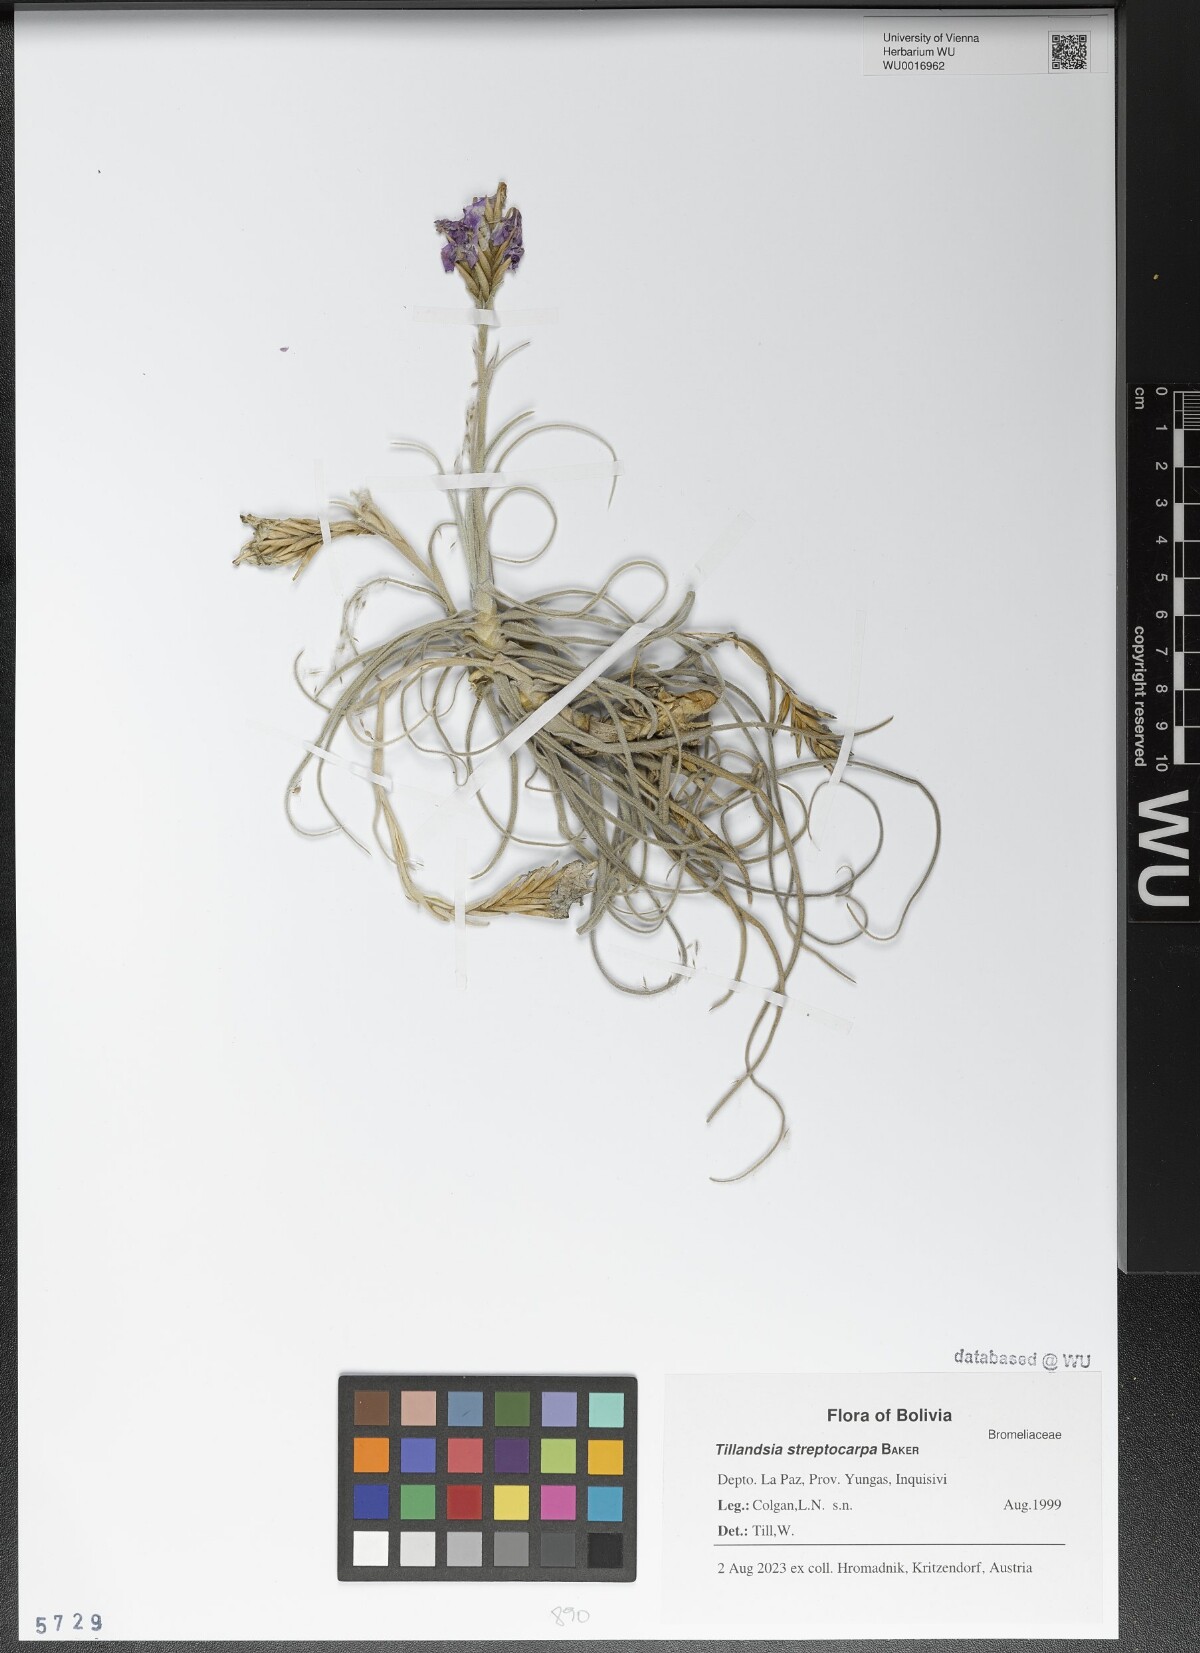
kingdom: Plantae
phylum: Tracheophyta
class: Liliopsida
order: Poales
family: Bromeliaceae
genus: Tillandsia
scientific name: Tillandsia streptocarpa
